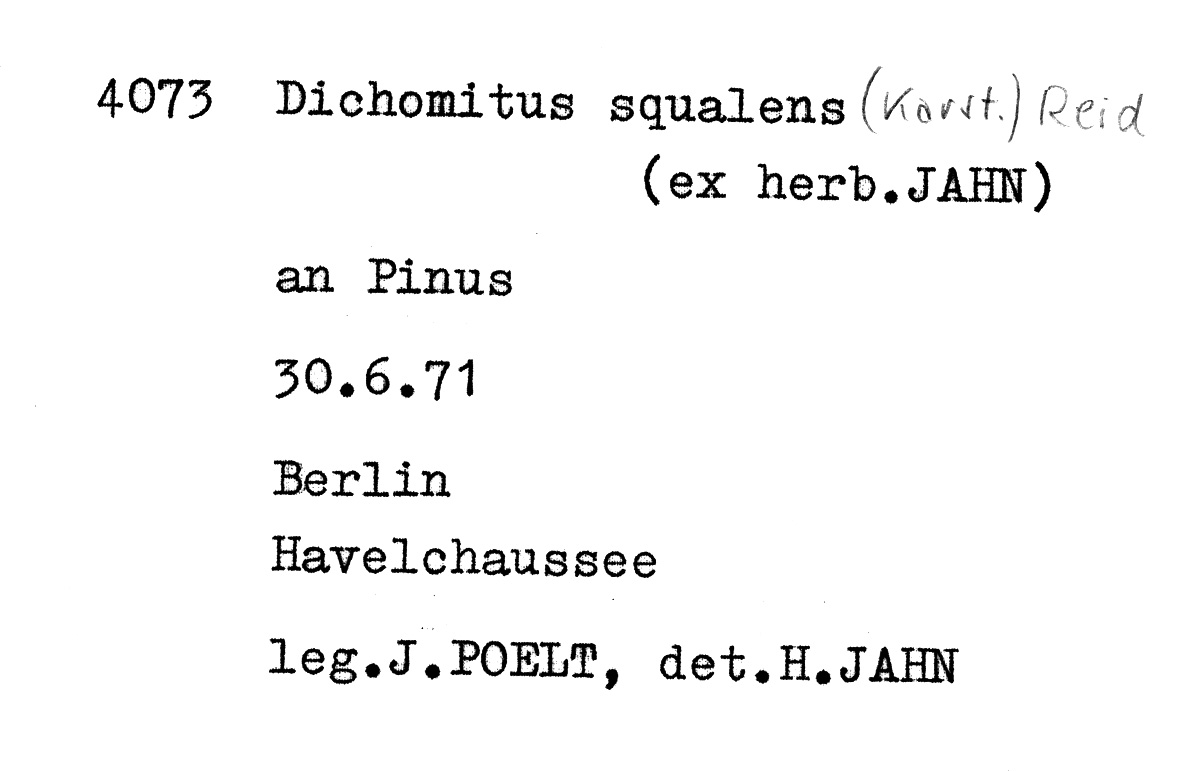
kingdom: Fungi
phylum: Basidiomycota
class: Agaricomycetes
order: Polyporales
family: Polyporaceae
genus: Dichomitus
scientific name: Dichomitus squalens
